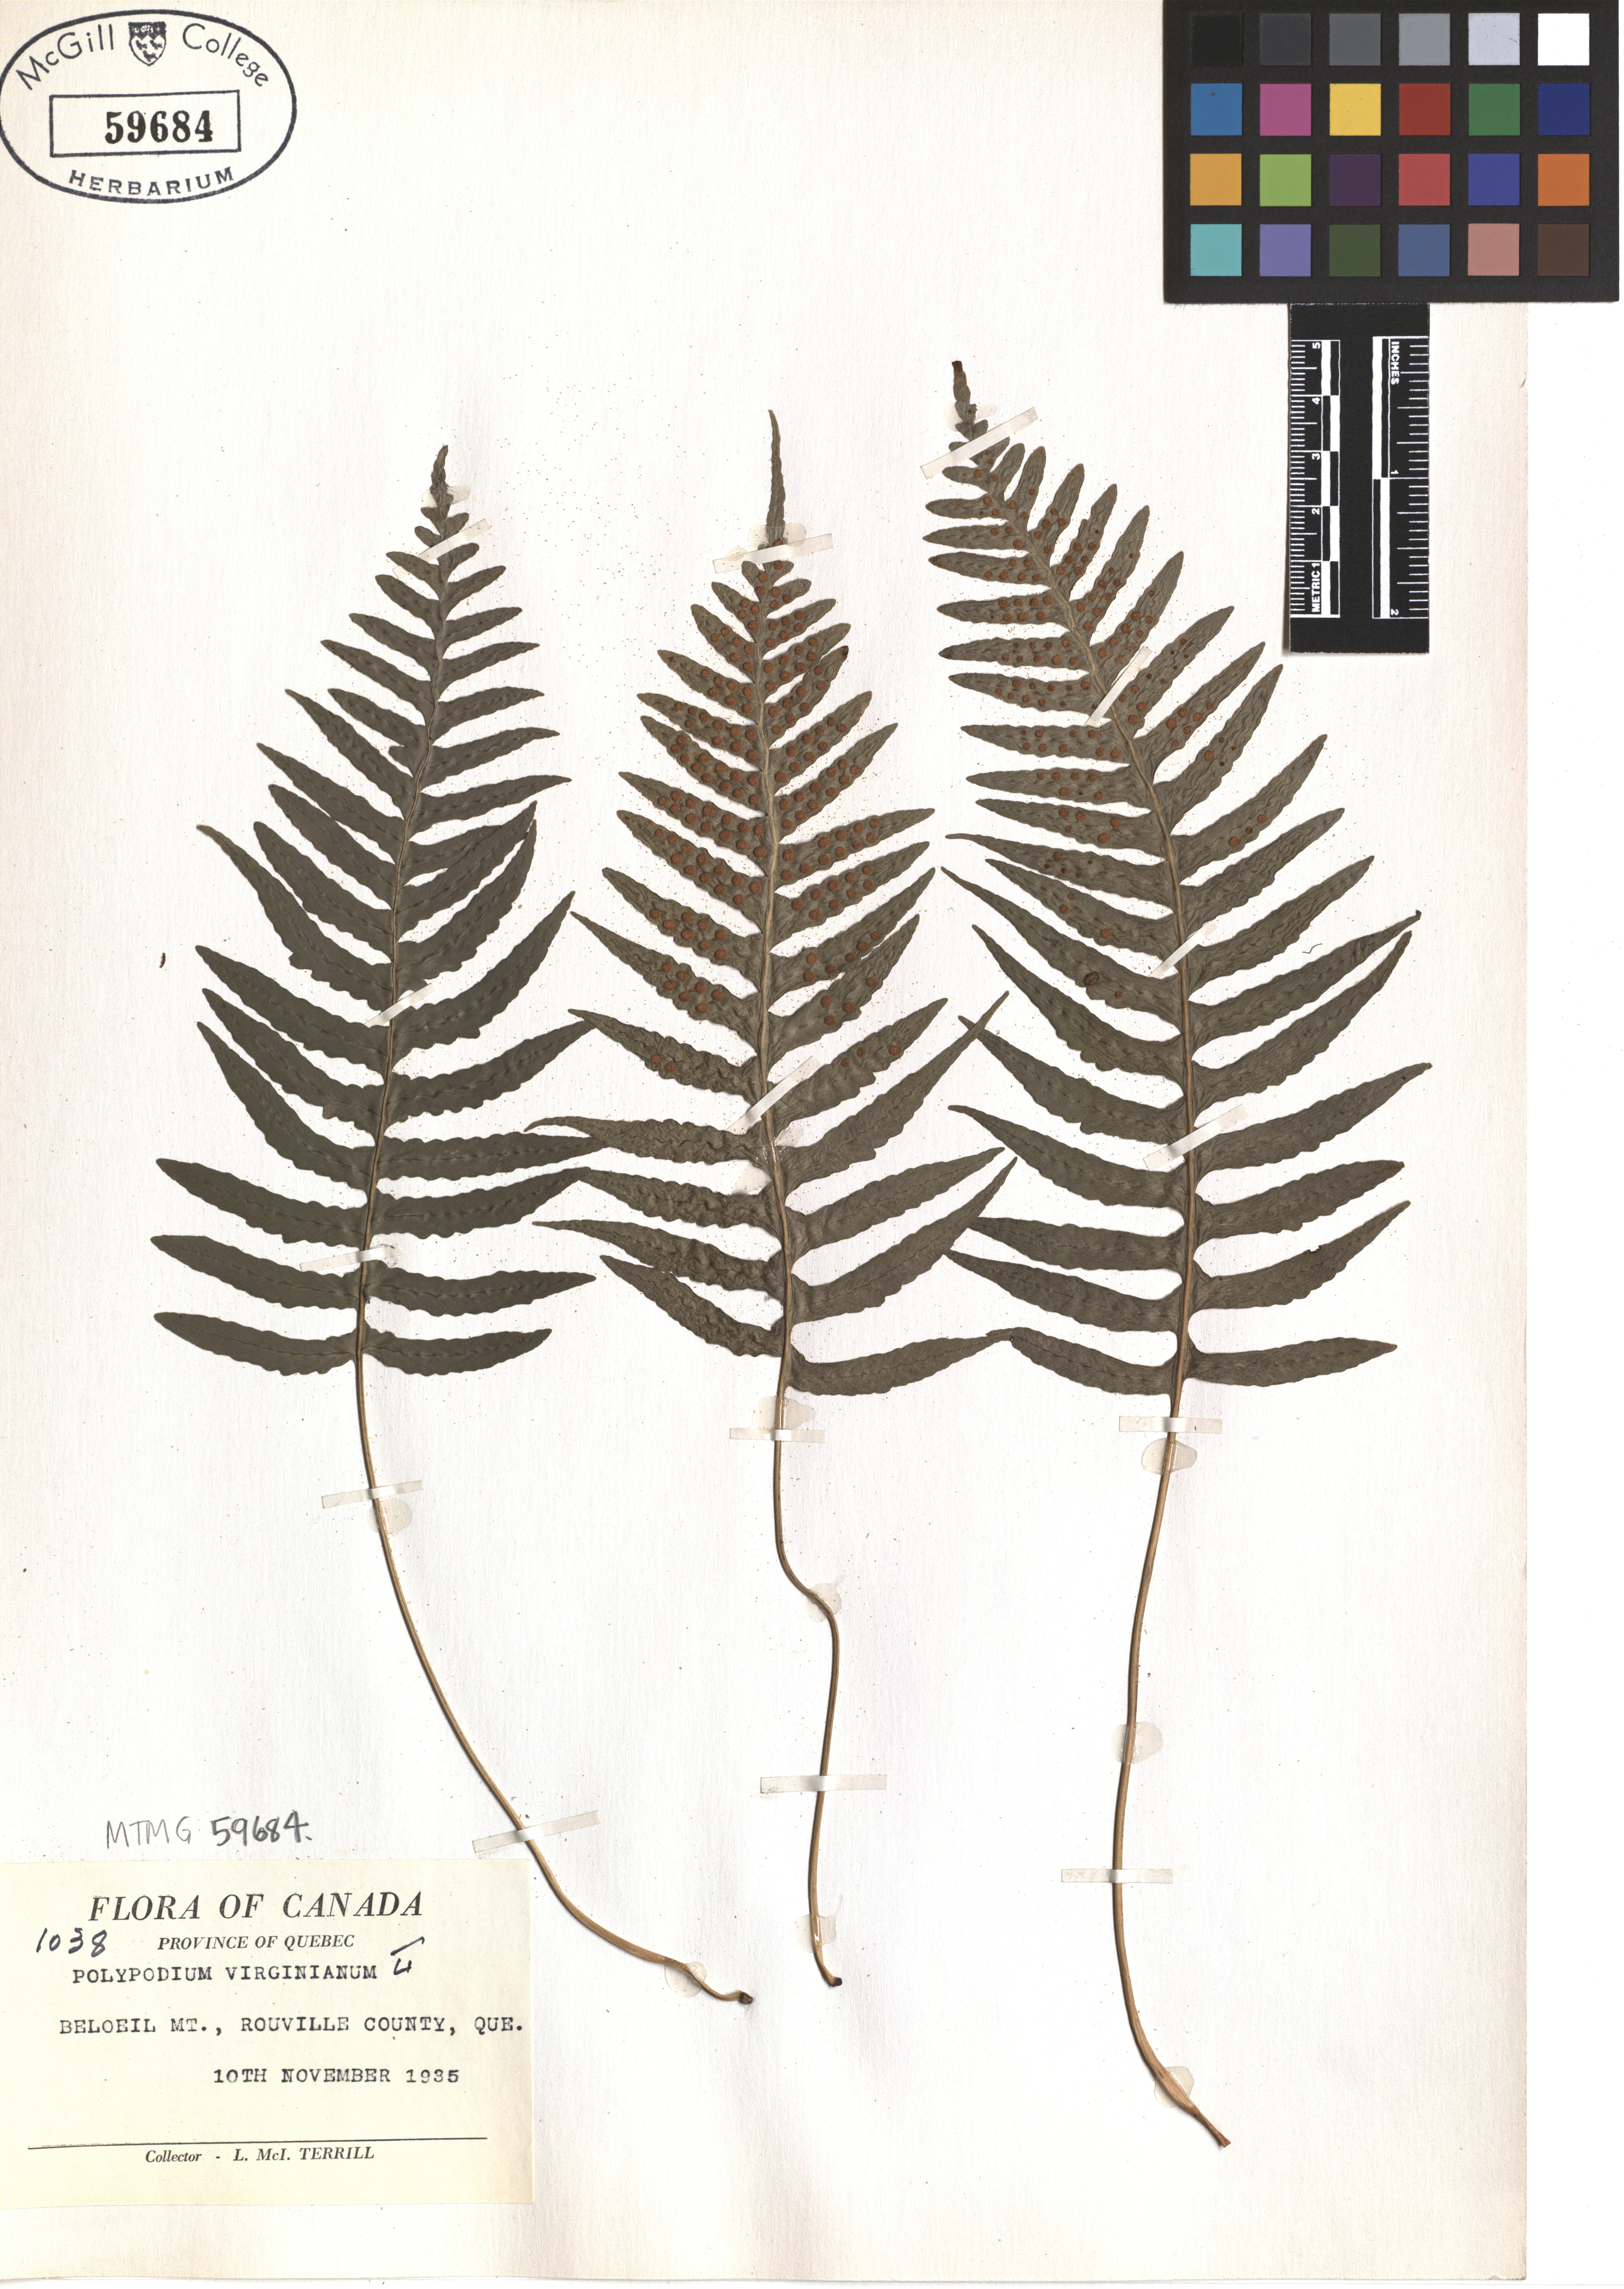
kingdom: Plantae
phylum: Tracheophyta
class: Polypodiopsida
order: Polypodiales
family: Polypodiaceae
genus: Polypodium
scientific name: Polypodium virginianum
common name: American wall fern
